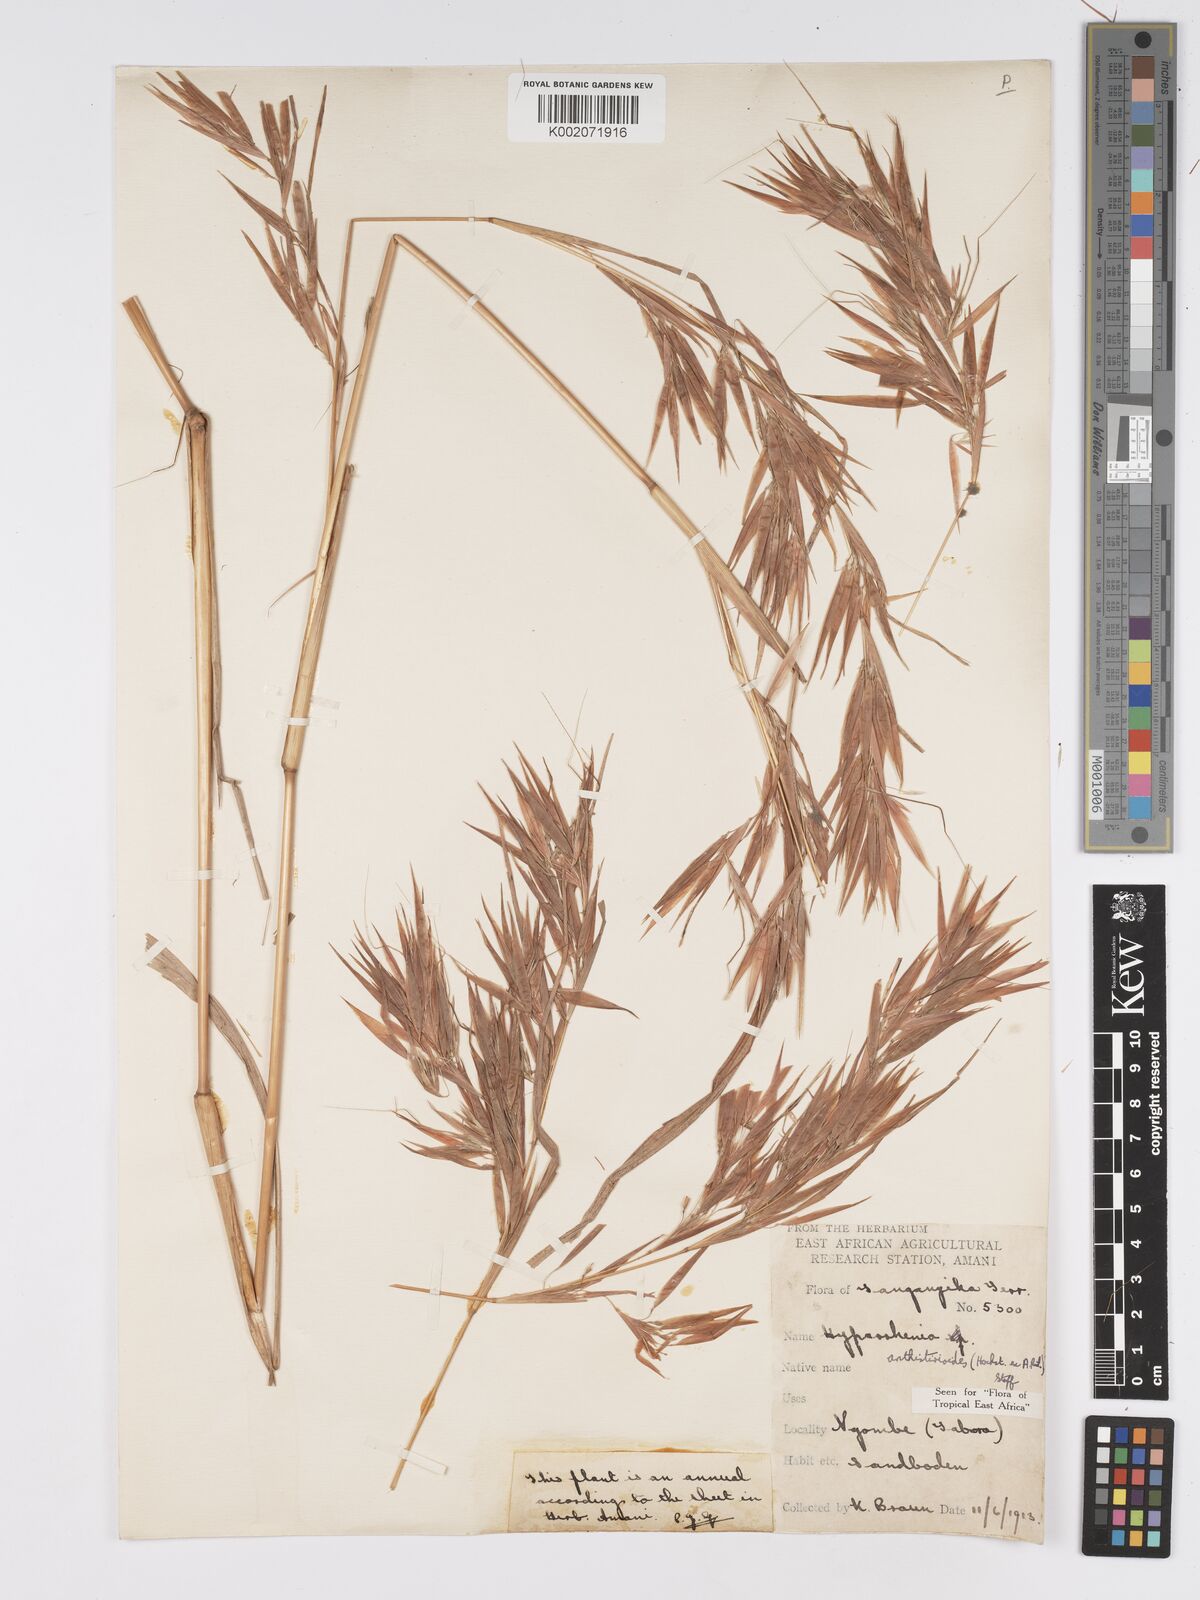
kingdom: Plantae
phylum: Tracheophyta
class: Liliopsida
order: Poales
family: Poaceae
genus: Hyparrhenia
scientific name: Hyparrhenia anthistirioides
